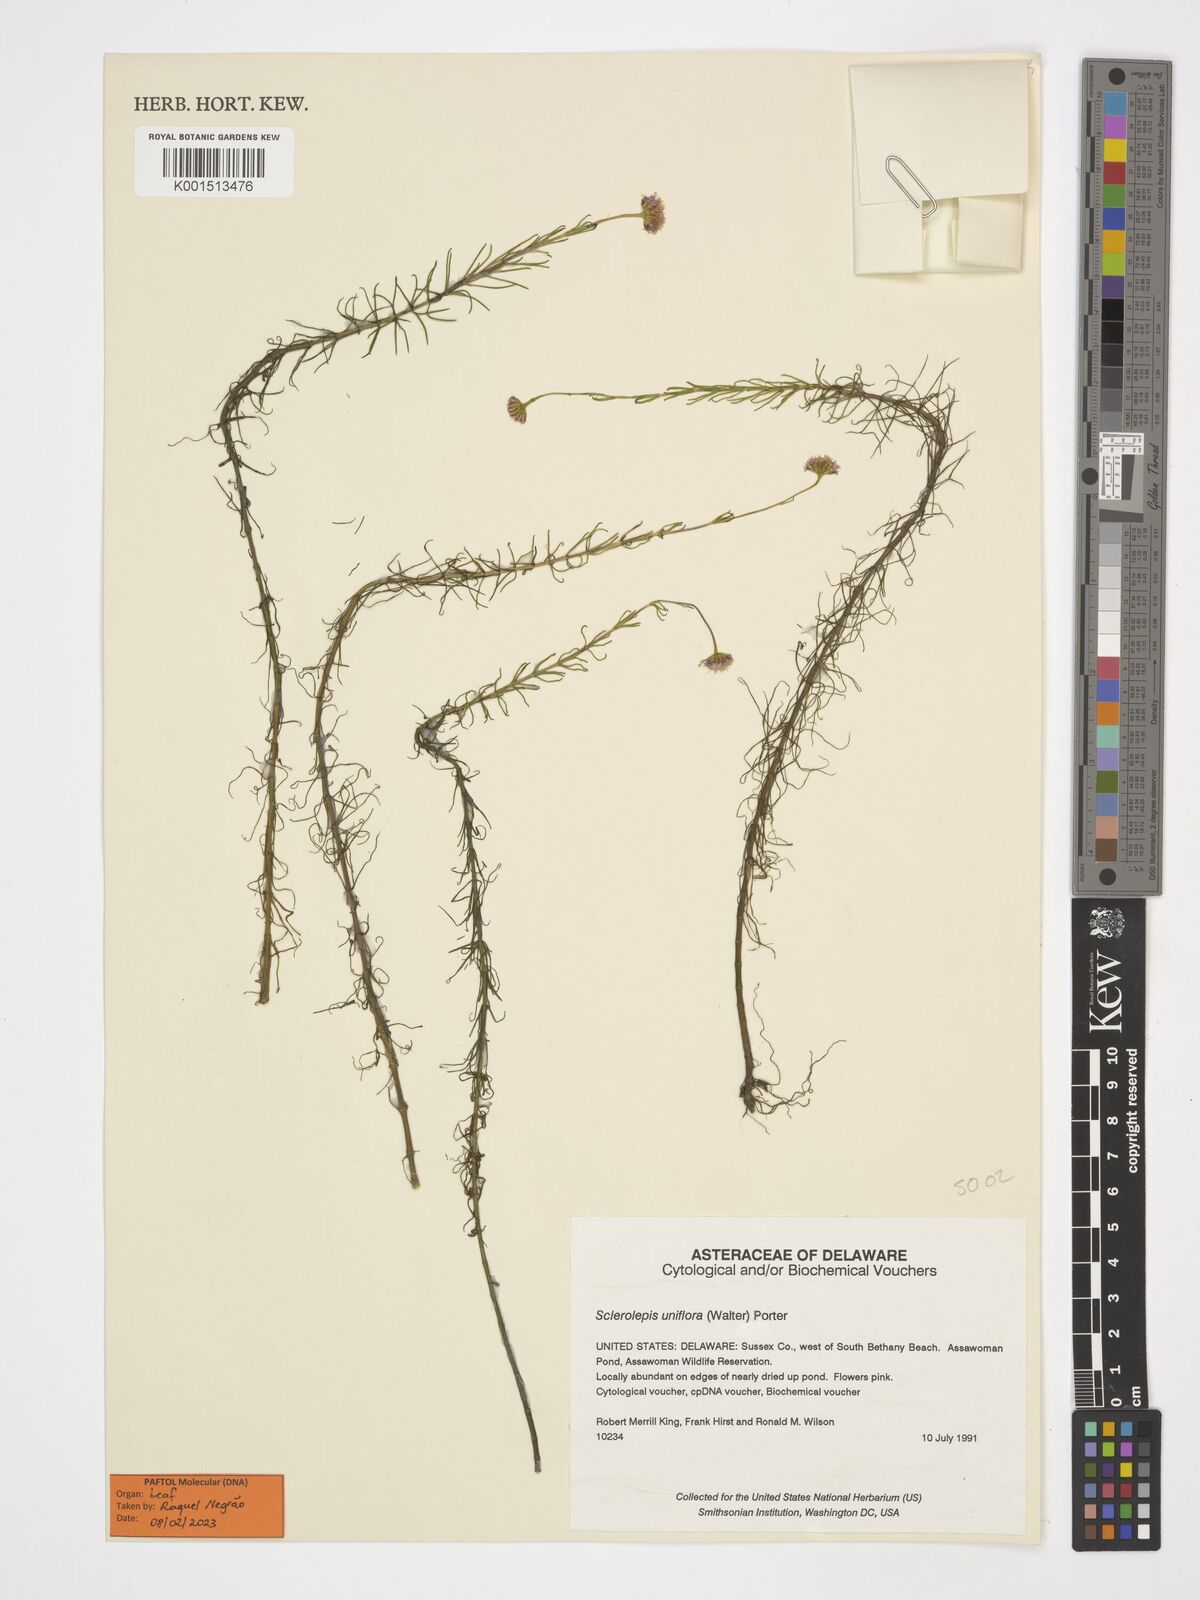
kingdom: Plantae
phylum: Tracheophyta
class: Magnoliopsida
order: Asterales
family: Asteraceae
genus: Sclerolepis
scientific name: Sclerolepis uniflora
